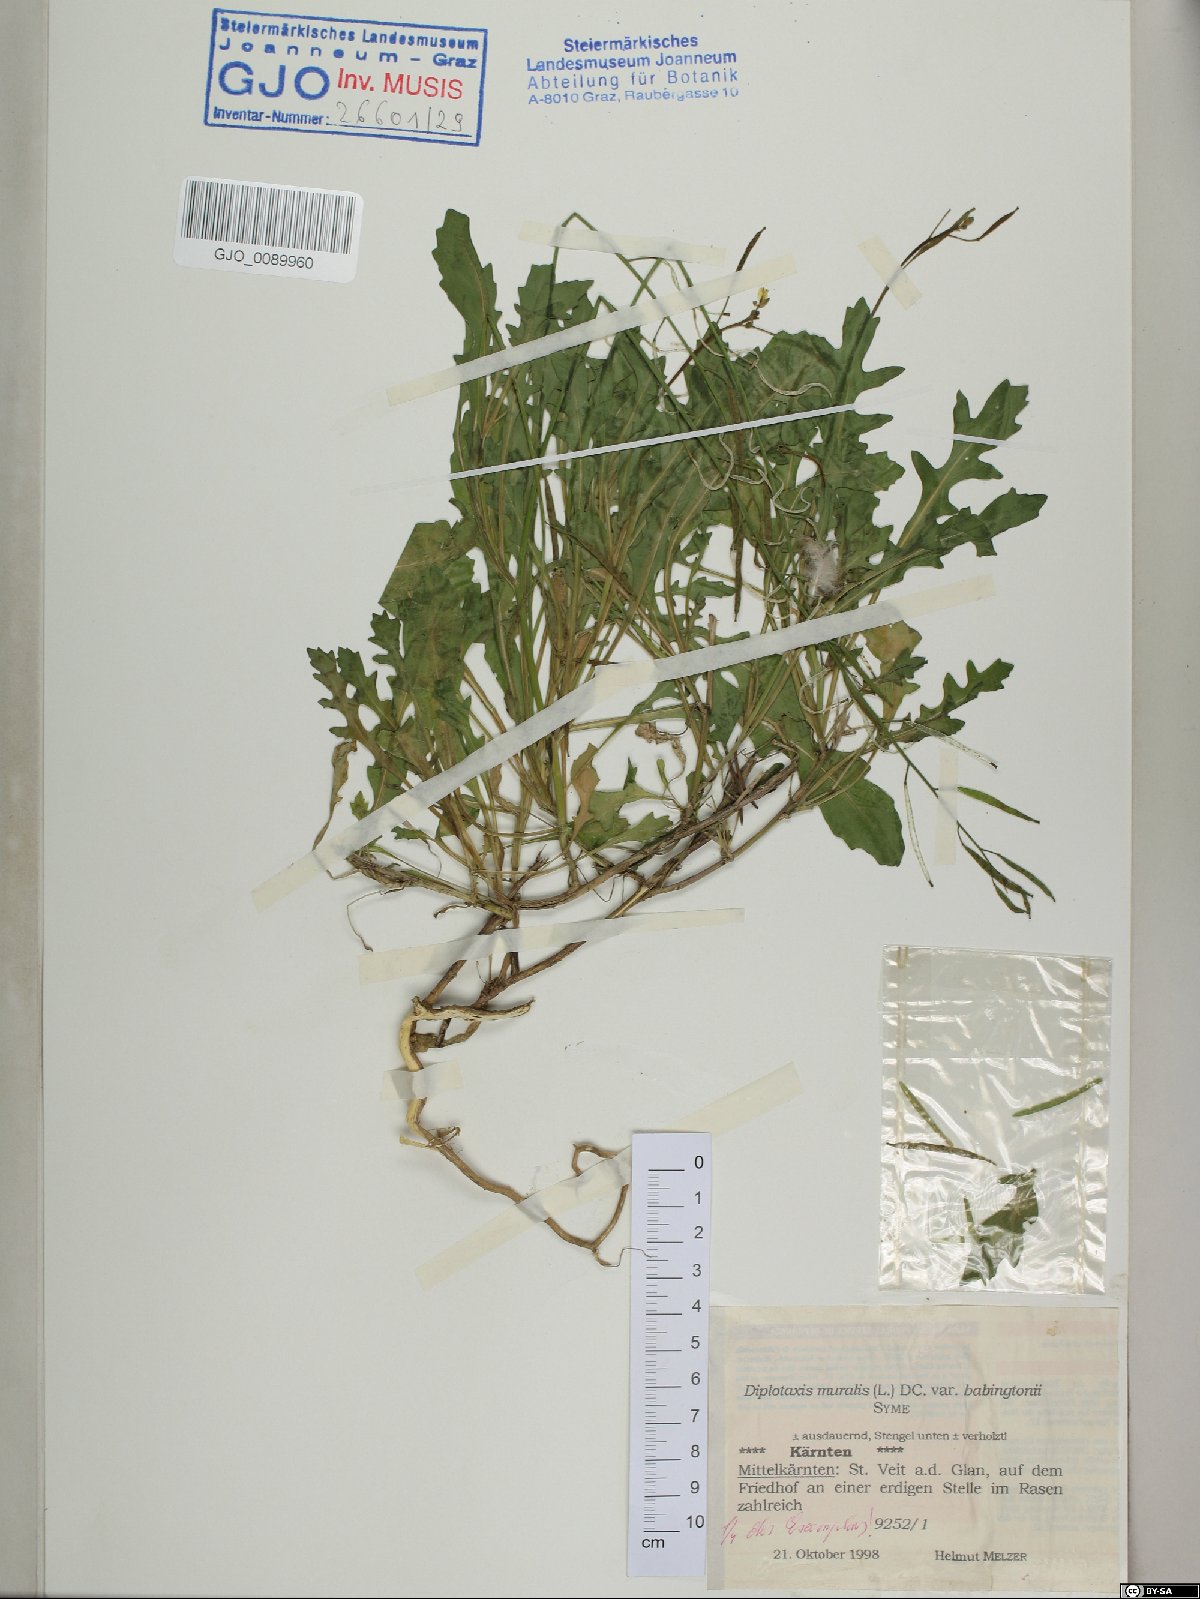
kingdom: Plantae
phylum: Tracheophyta
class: Magnoliopsida
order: Brassicales
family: Brassicaceae
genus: Diplotaxis
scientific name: Diplotaxis muralis
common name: Annual wall-rocket
